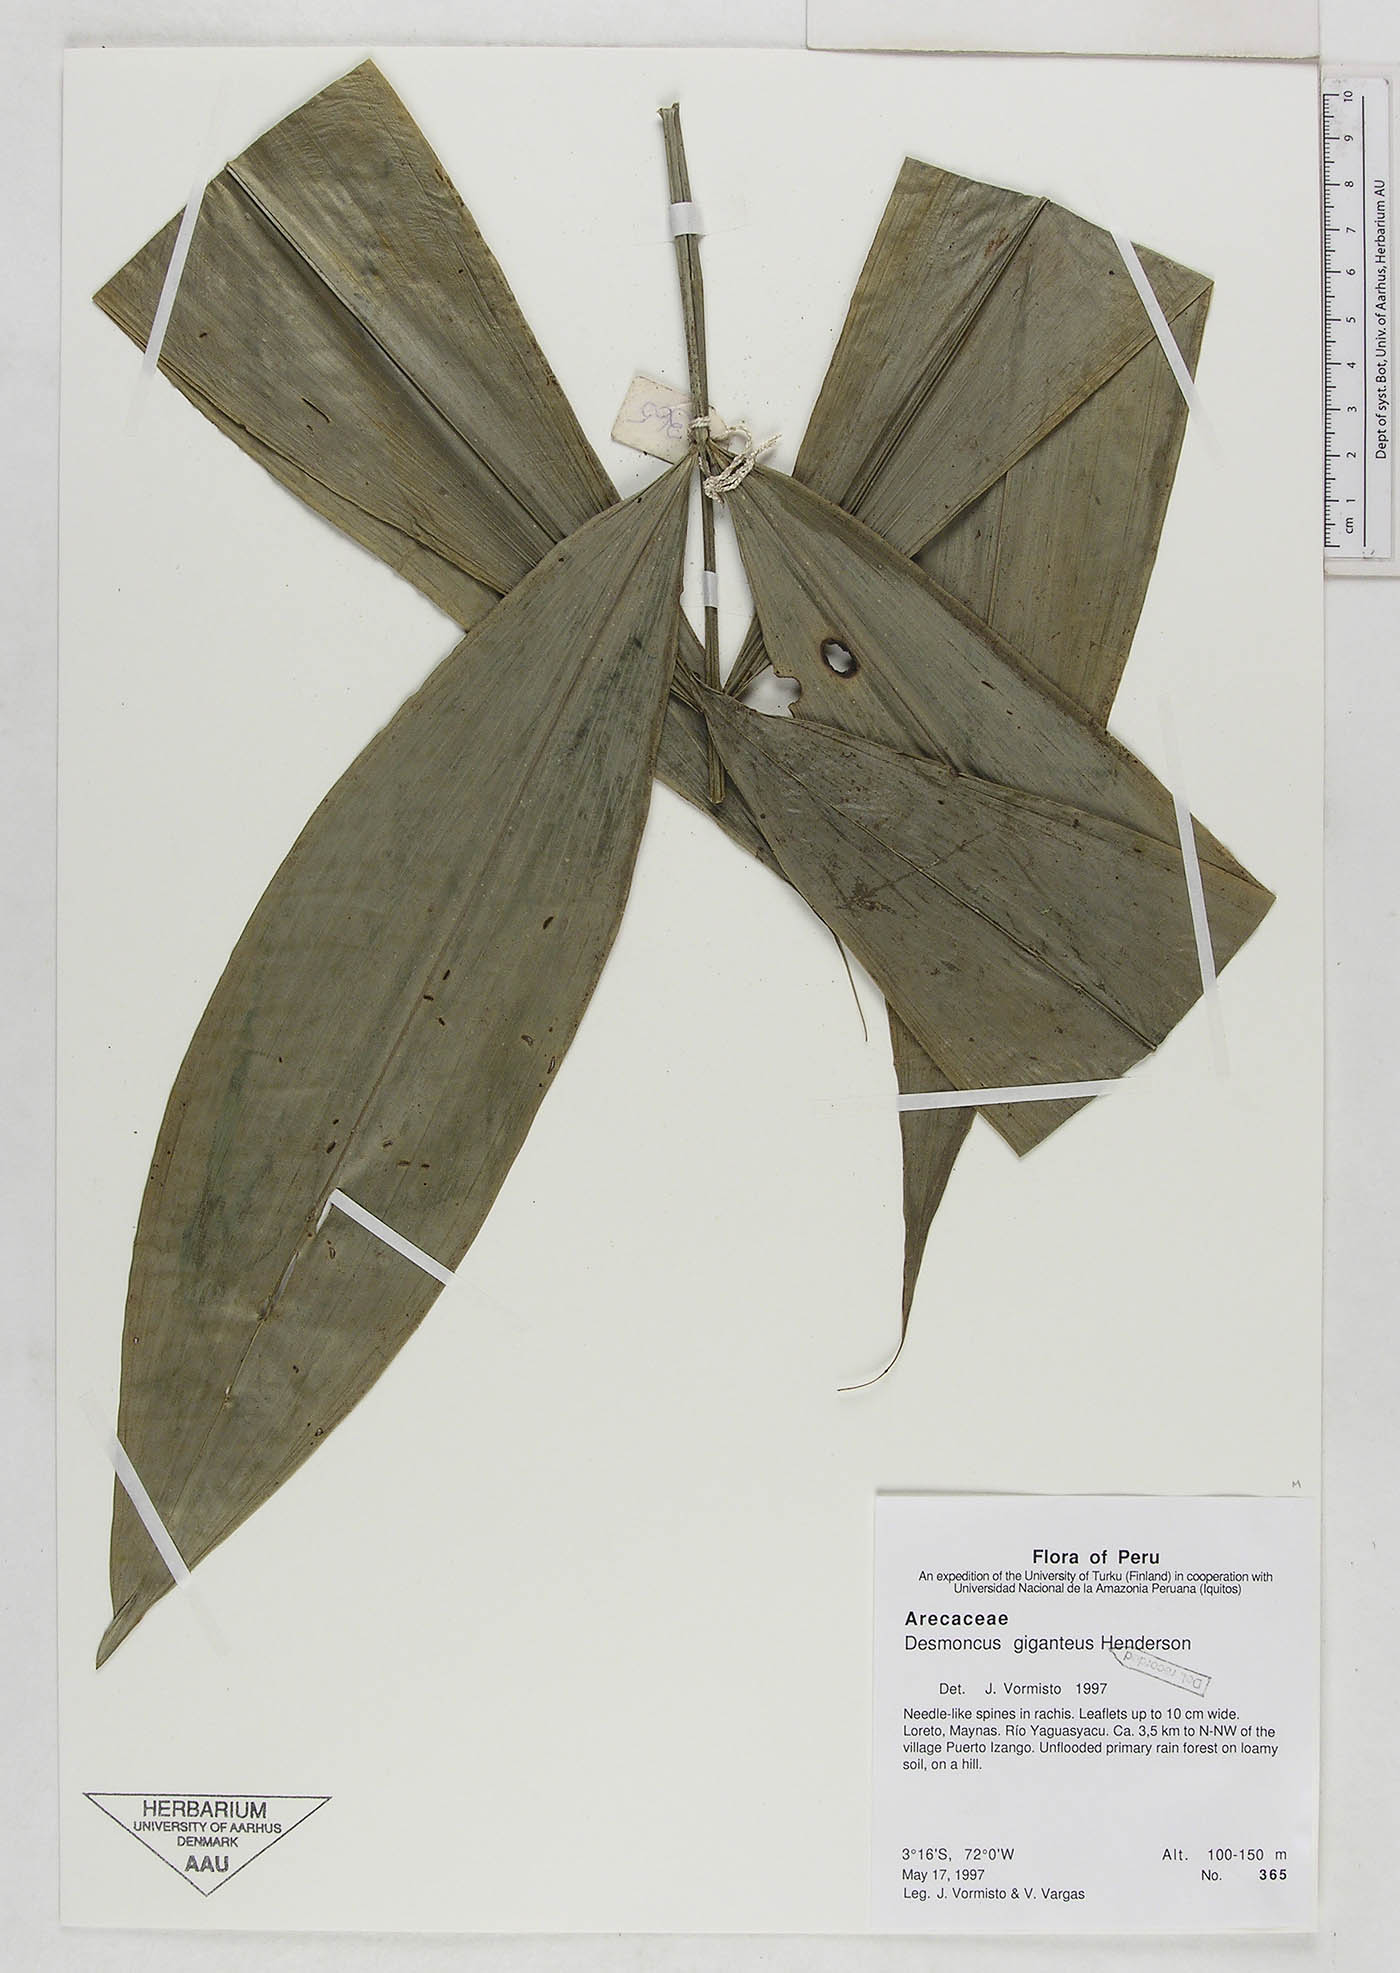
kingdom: Plantae
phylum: Tracheophyta
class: Liliopsida
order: Arecales
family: Arecaceae
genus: Desmoncus
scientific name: Desmoncus giganteus
